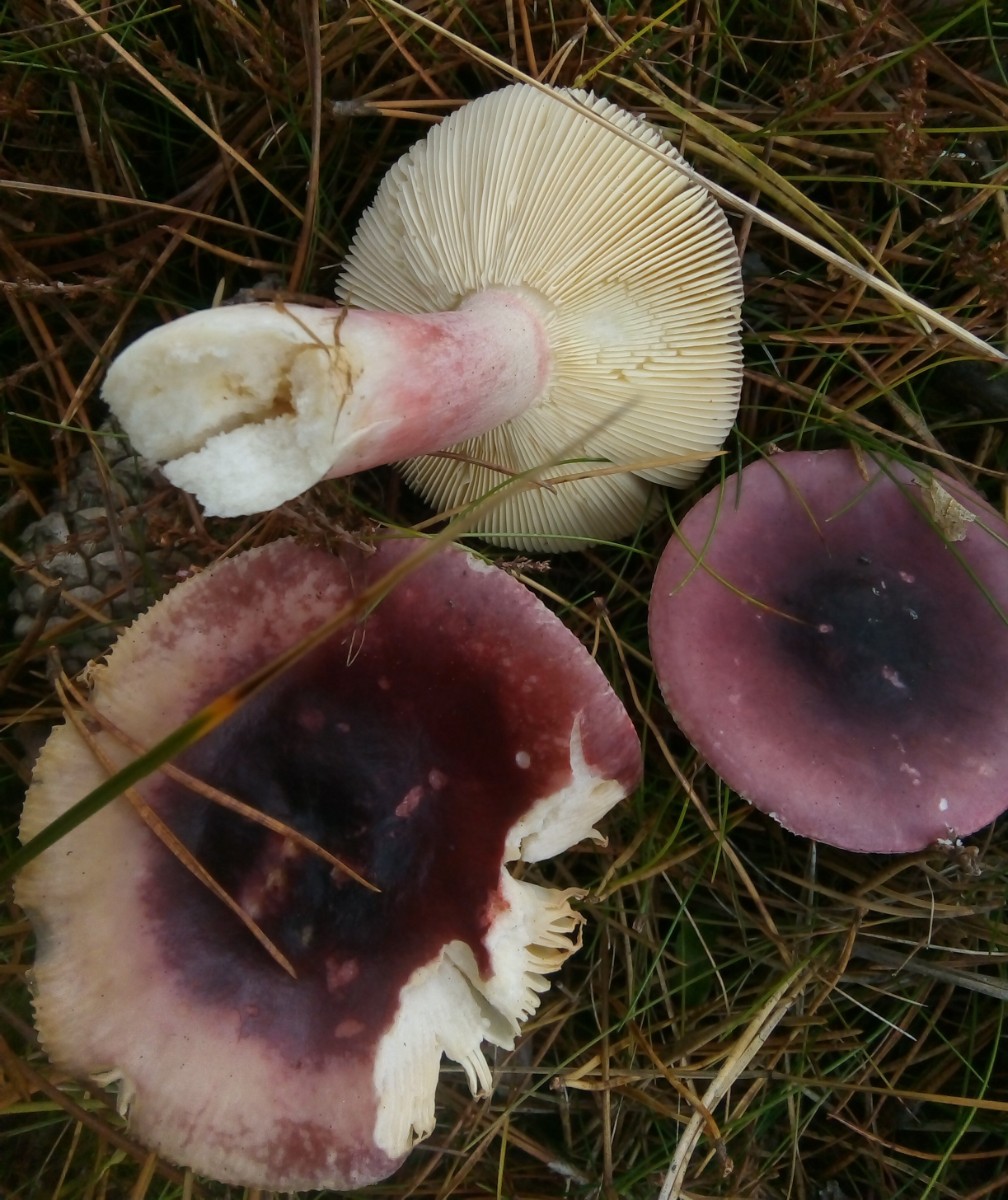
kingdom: Fungi
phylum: Basidiomycota
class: Agaricomycetes
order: Russulales
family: Russulaceae
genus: Russula
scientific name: Russula sardonia
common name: citronbladet skørhat
